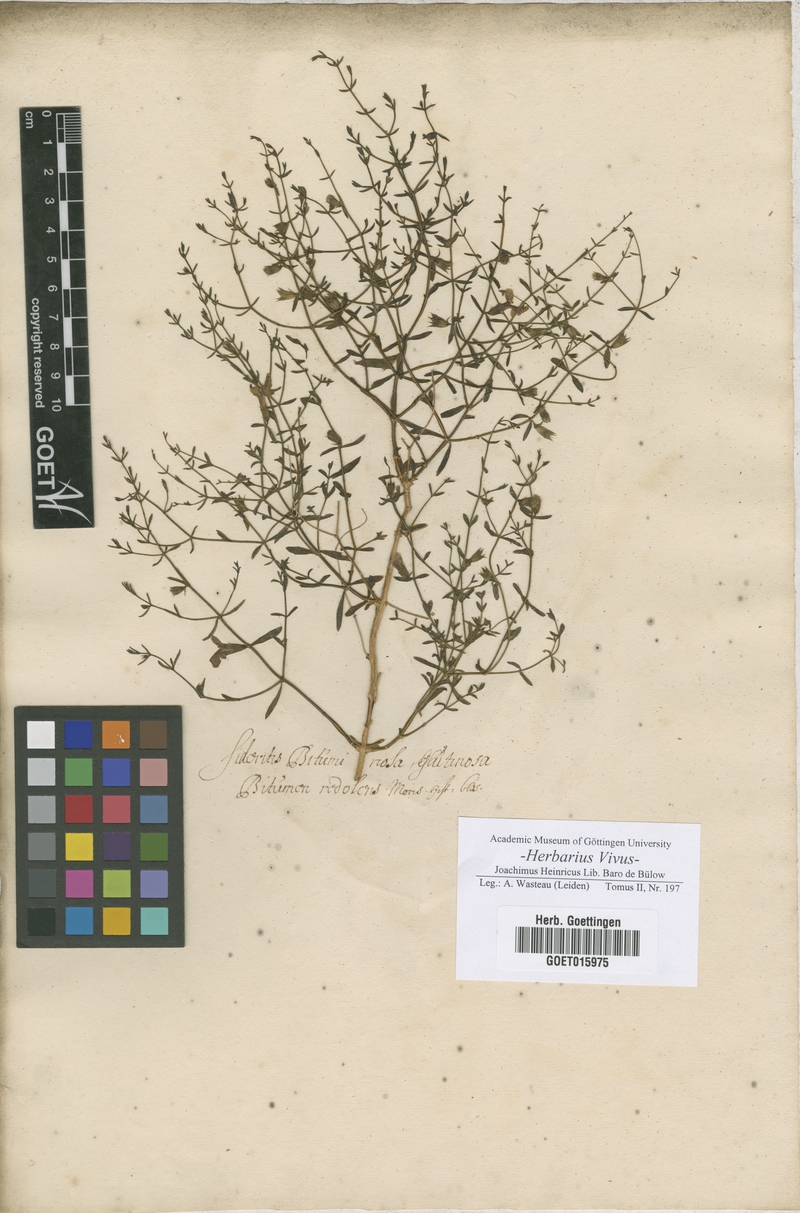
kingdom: Plantae
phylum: Tracheophyta
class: Magnoliopsida
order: Lamiales
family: Lamiaceae
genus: Sideritis
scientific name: Sideritis
